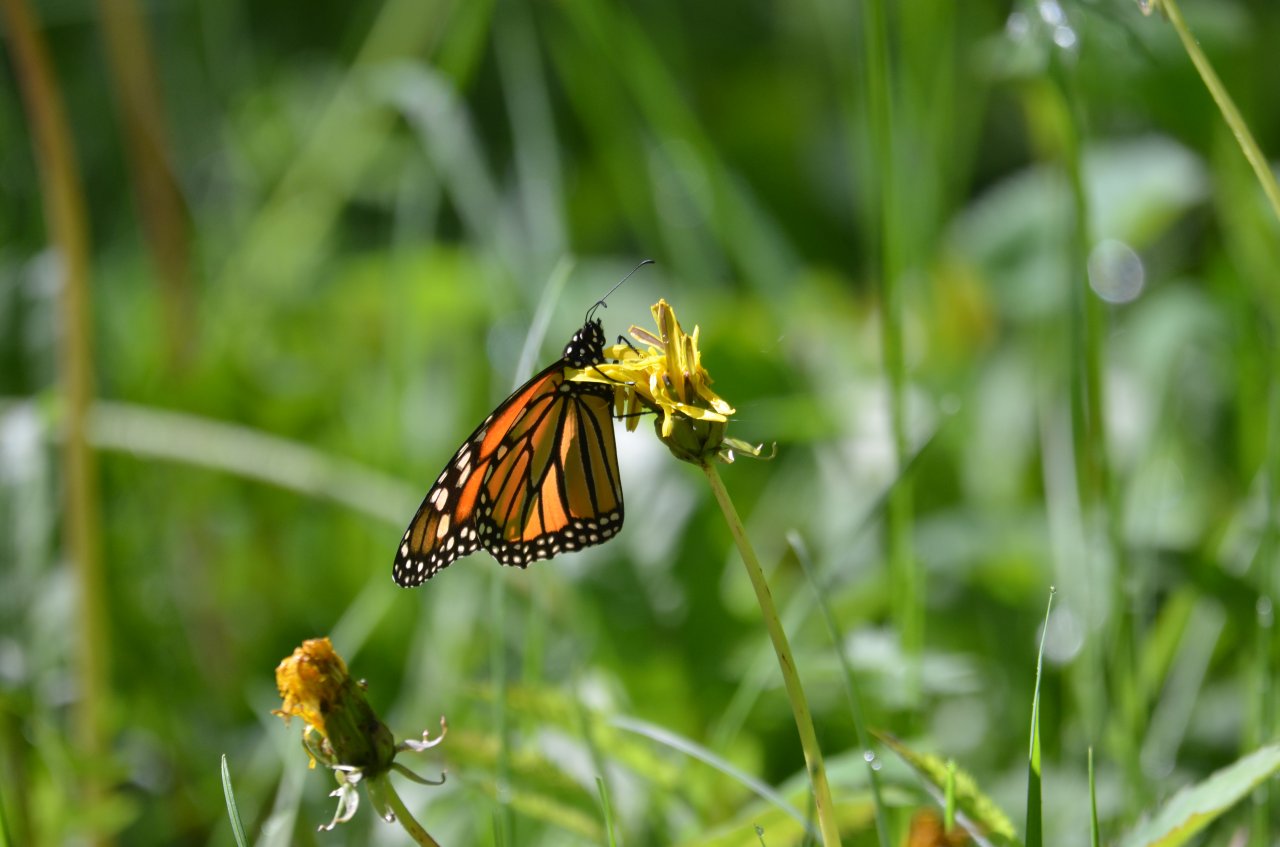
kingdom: Animalia
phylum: Arthropoda
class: Insecta
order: Lepidoptera
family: Nymphalidae
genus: Danaus
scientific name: Danaus plexippus
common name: Monarch
